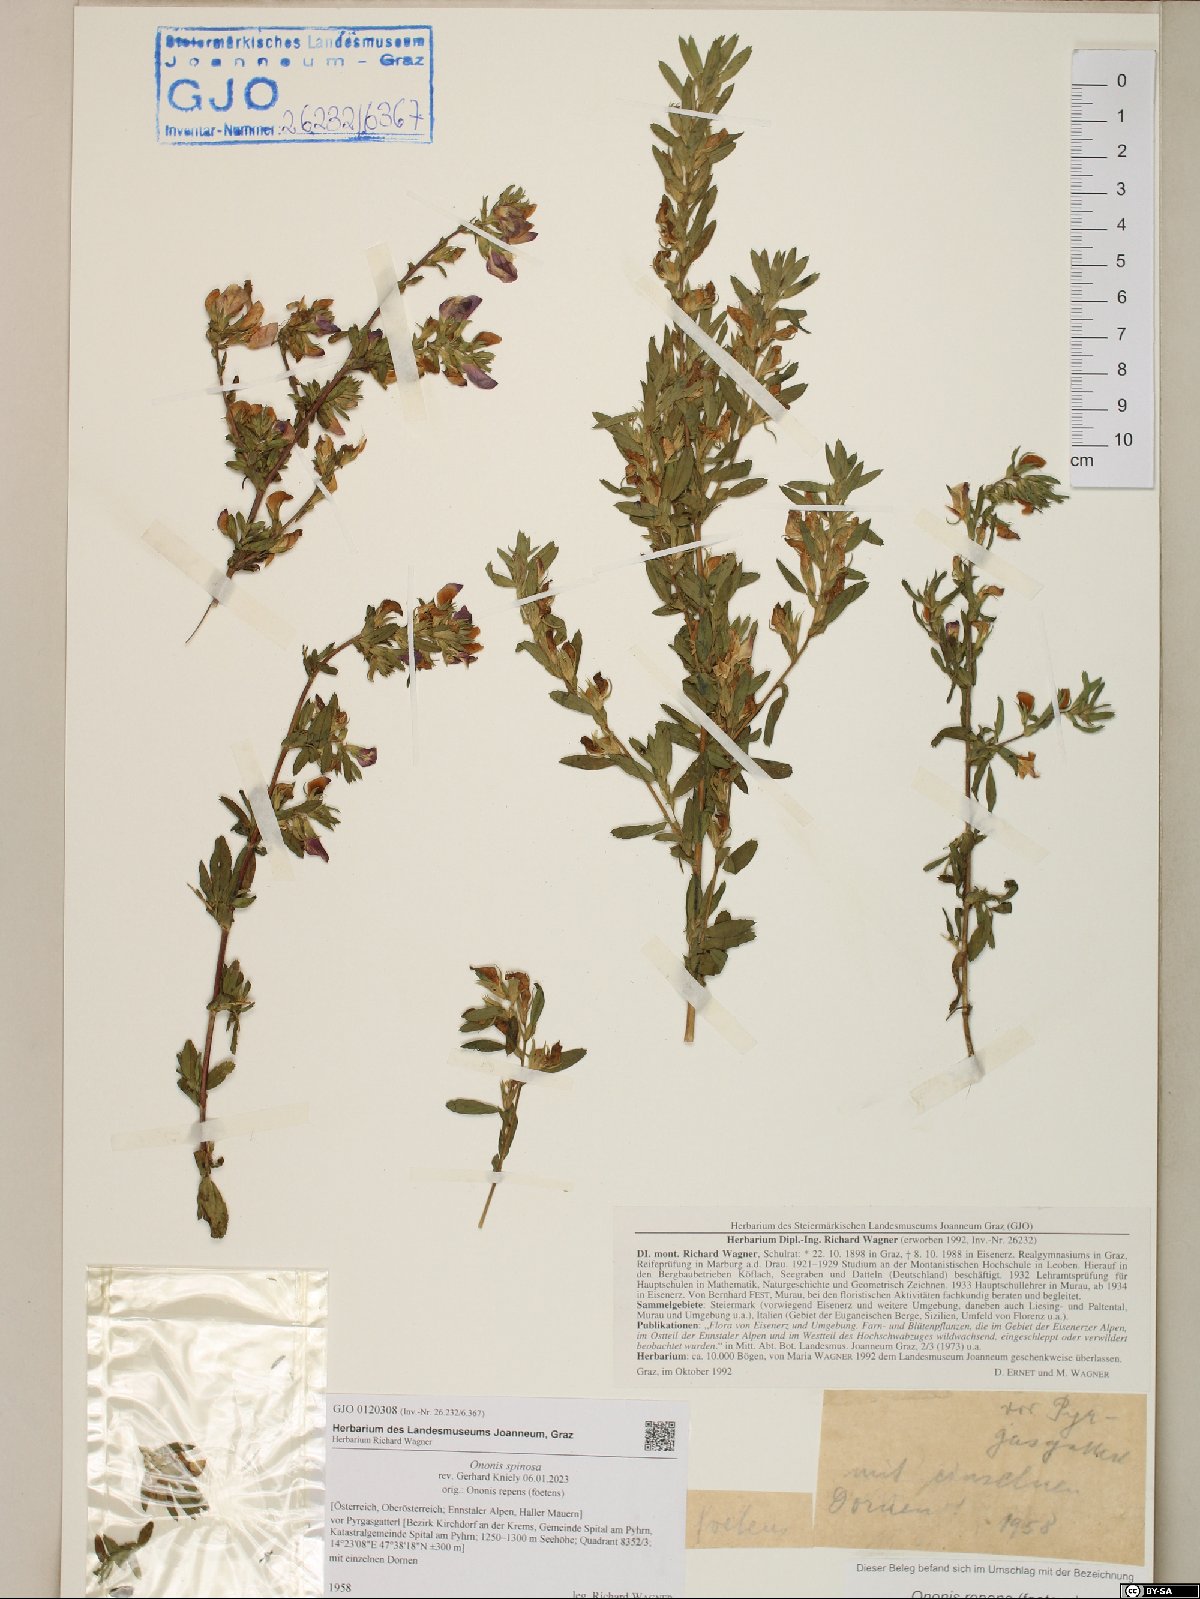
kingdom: Plantae
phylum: Tracheophyta
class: Magnoliopsida
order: Fabales
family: Fabaceae
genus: Ononis
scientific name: Ononis spinosa
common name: Spiny restharrow
